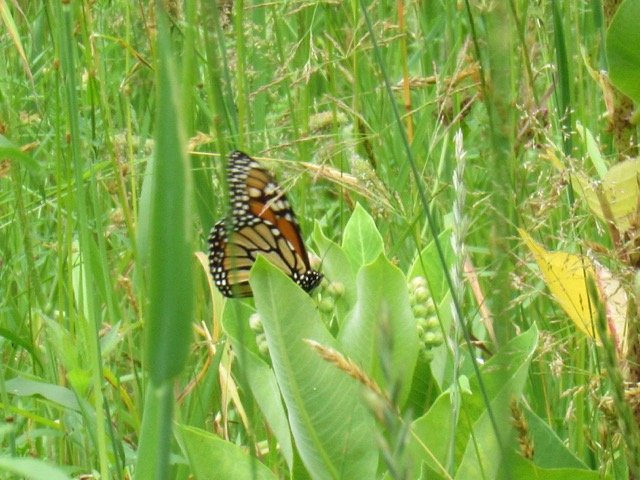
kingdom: Animalia
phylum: Arthropoda
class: Insecta
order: Lepidoptera
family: Nymphalidae
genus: Danaus
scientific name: Danaus plexippus
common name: Monarch
